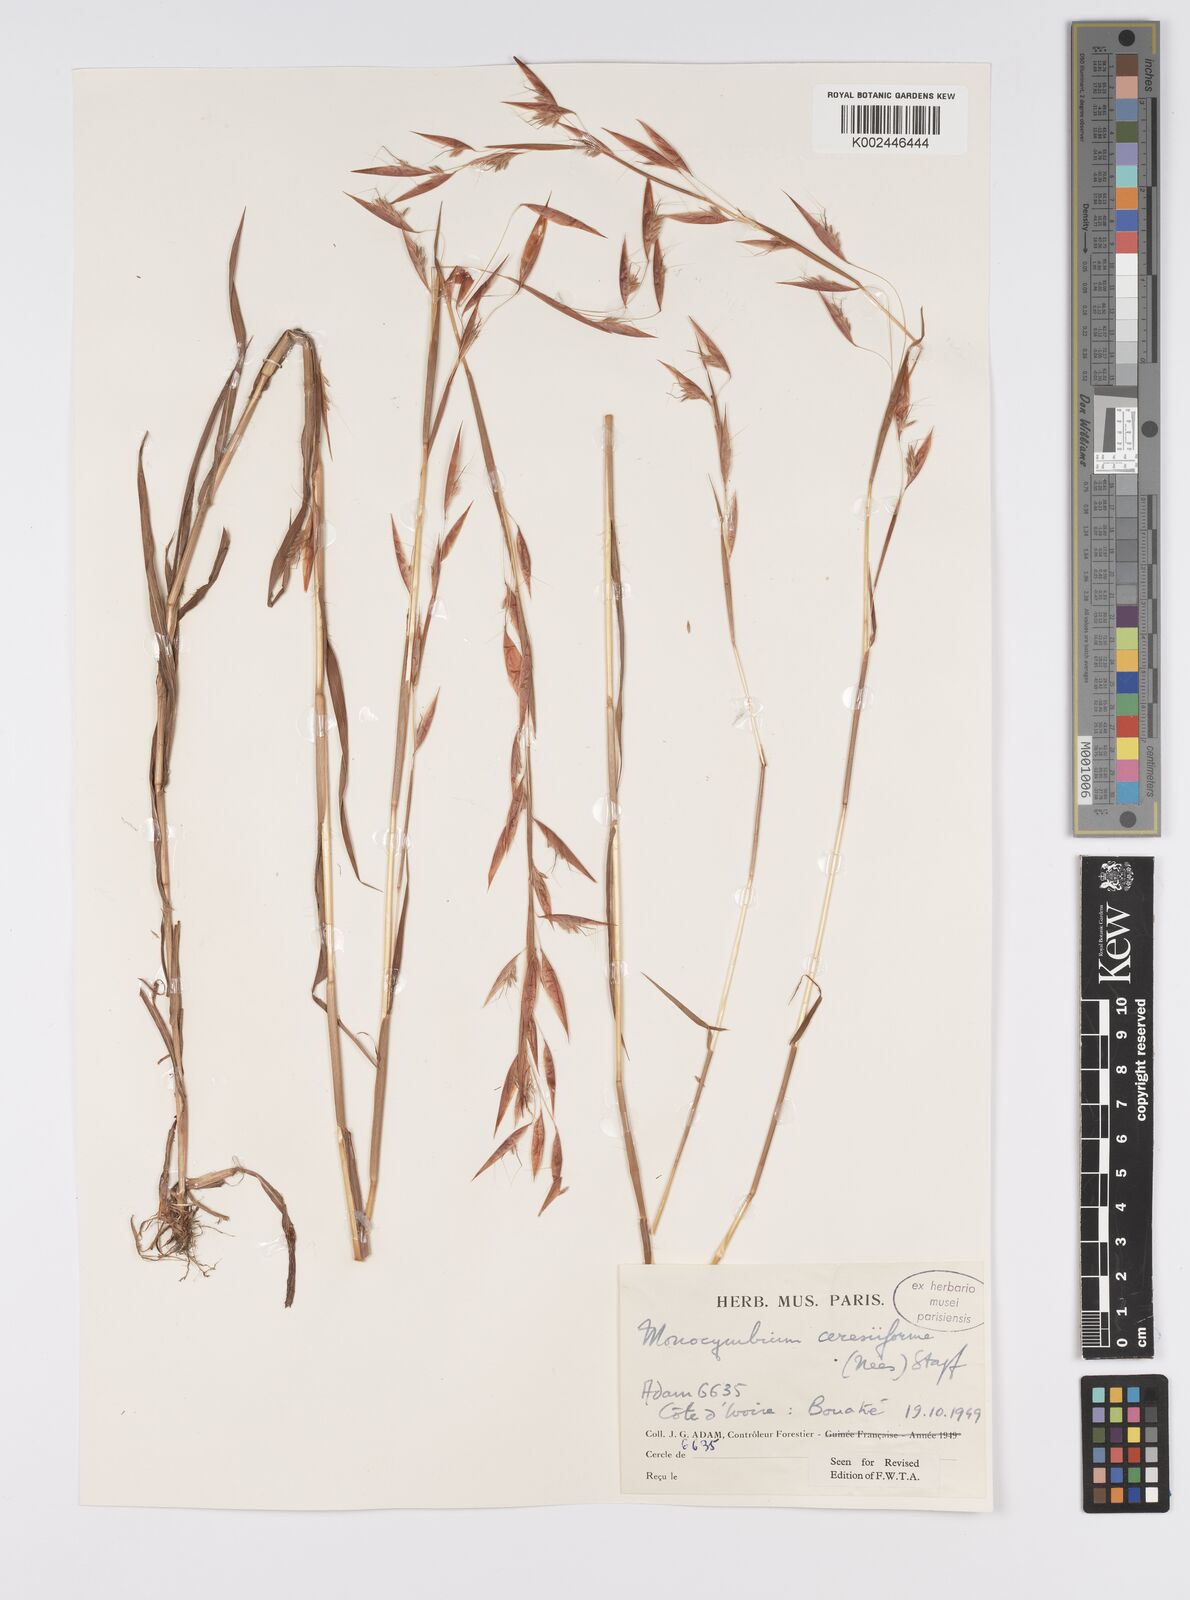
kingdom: Plantae
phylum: Tracheophyta
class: Liliopsida
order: Poales
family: Poaceae
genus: Monocymbium
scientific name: Monocymbium ceresiiforme
